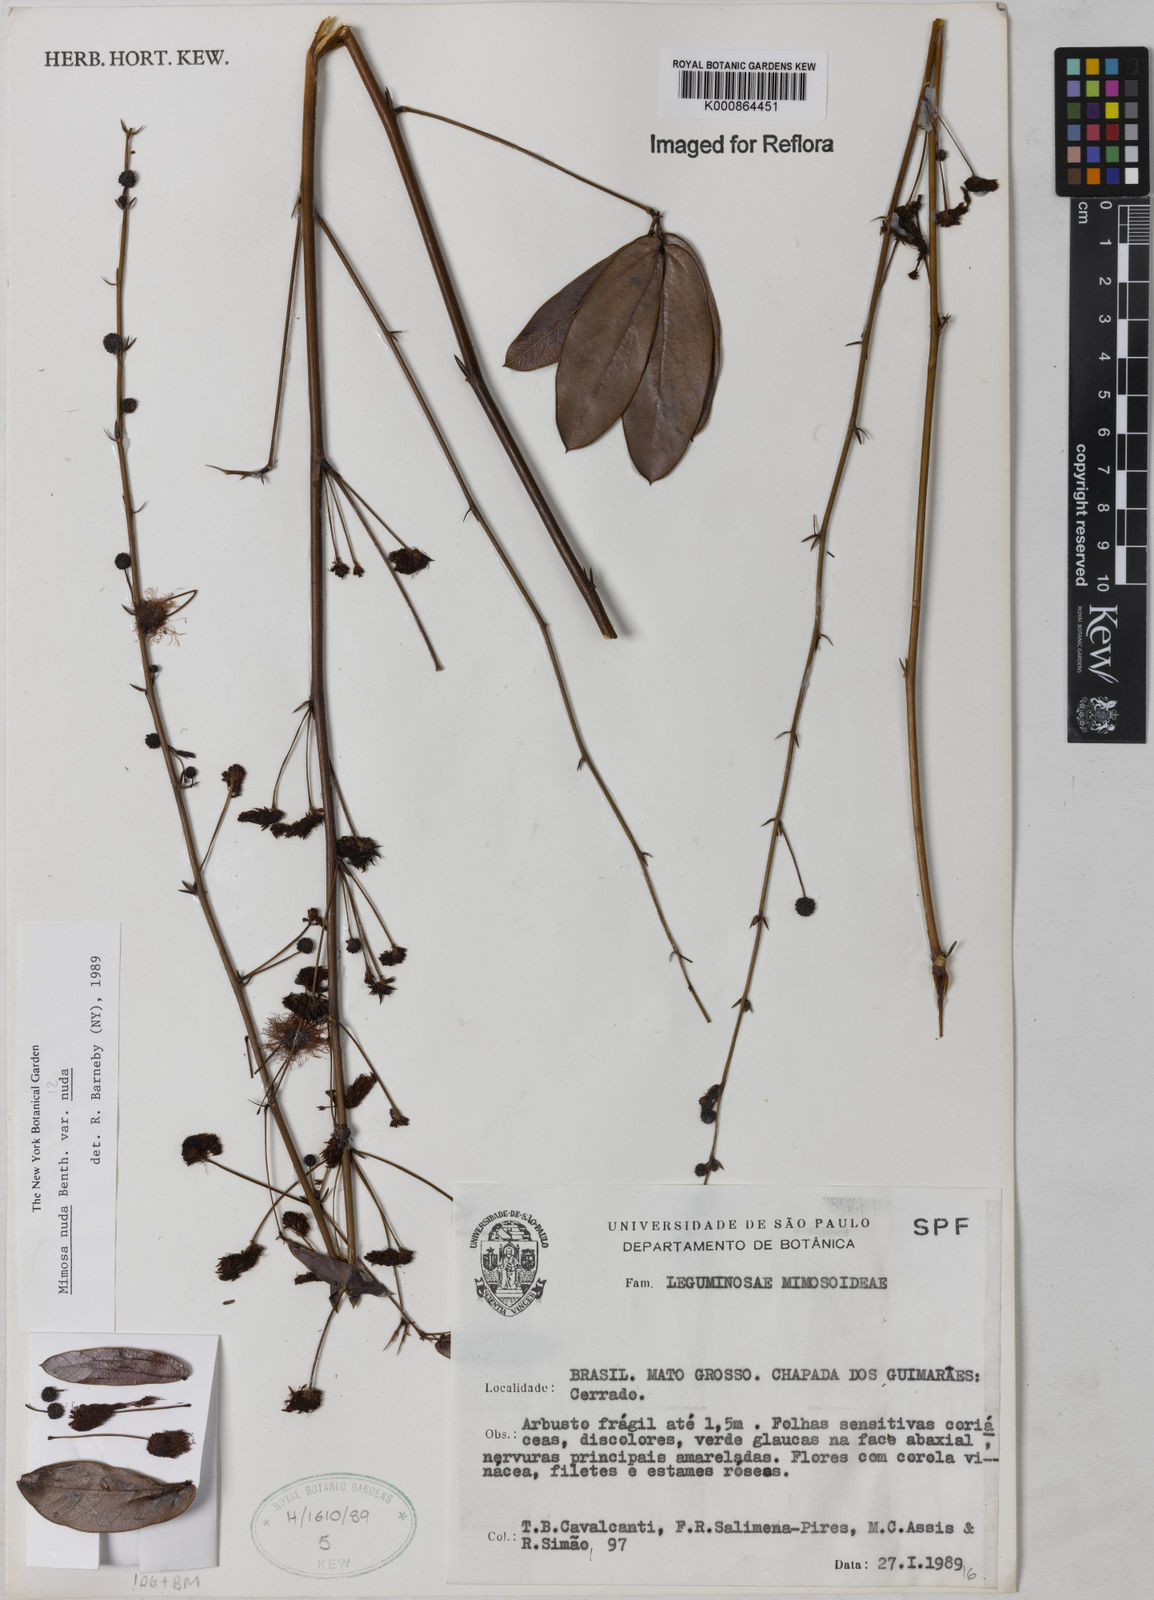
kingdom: Plantae
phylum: Tracheophyta
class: Magnoliopsida
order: Fabales
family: Fabaceae
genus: Mimosa
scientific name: Mimosa debilis
